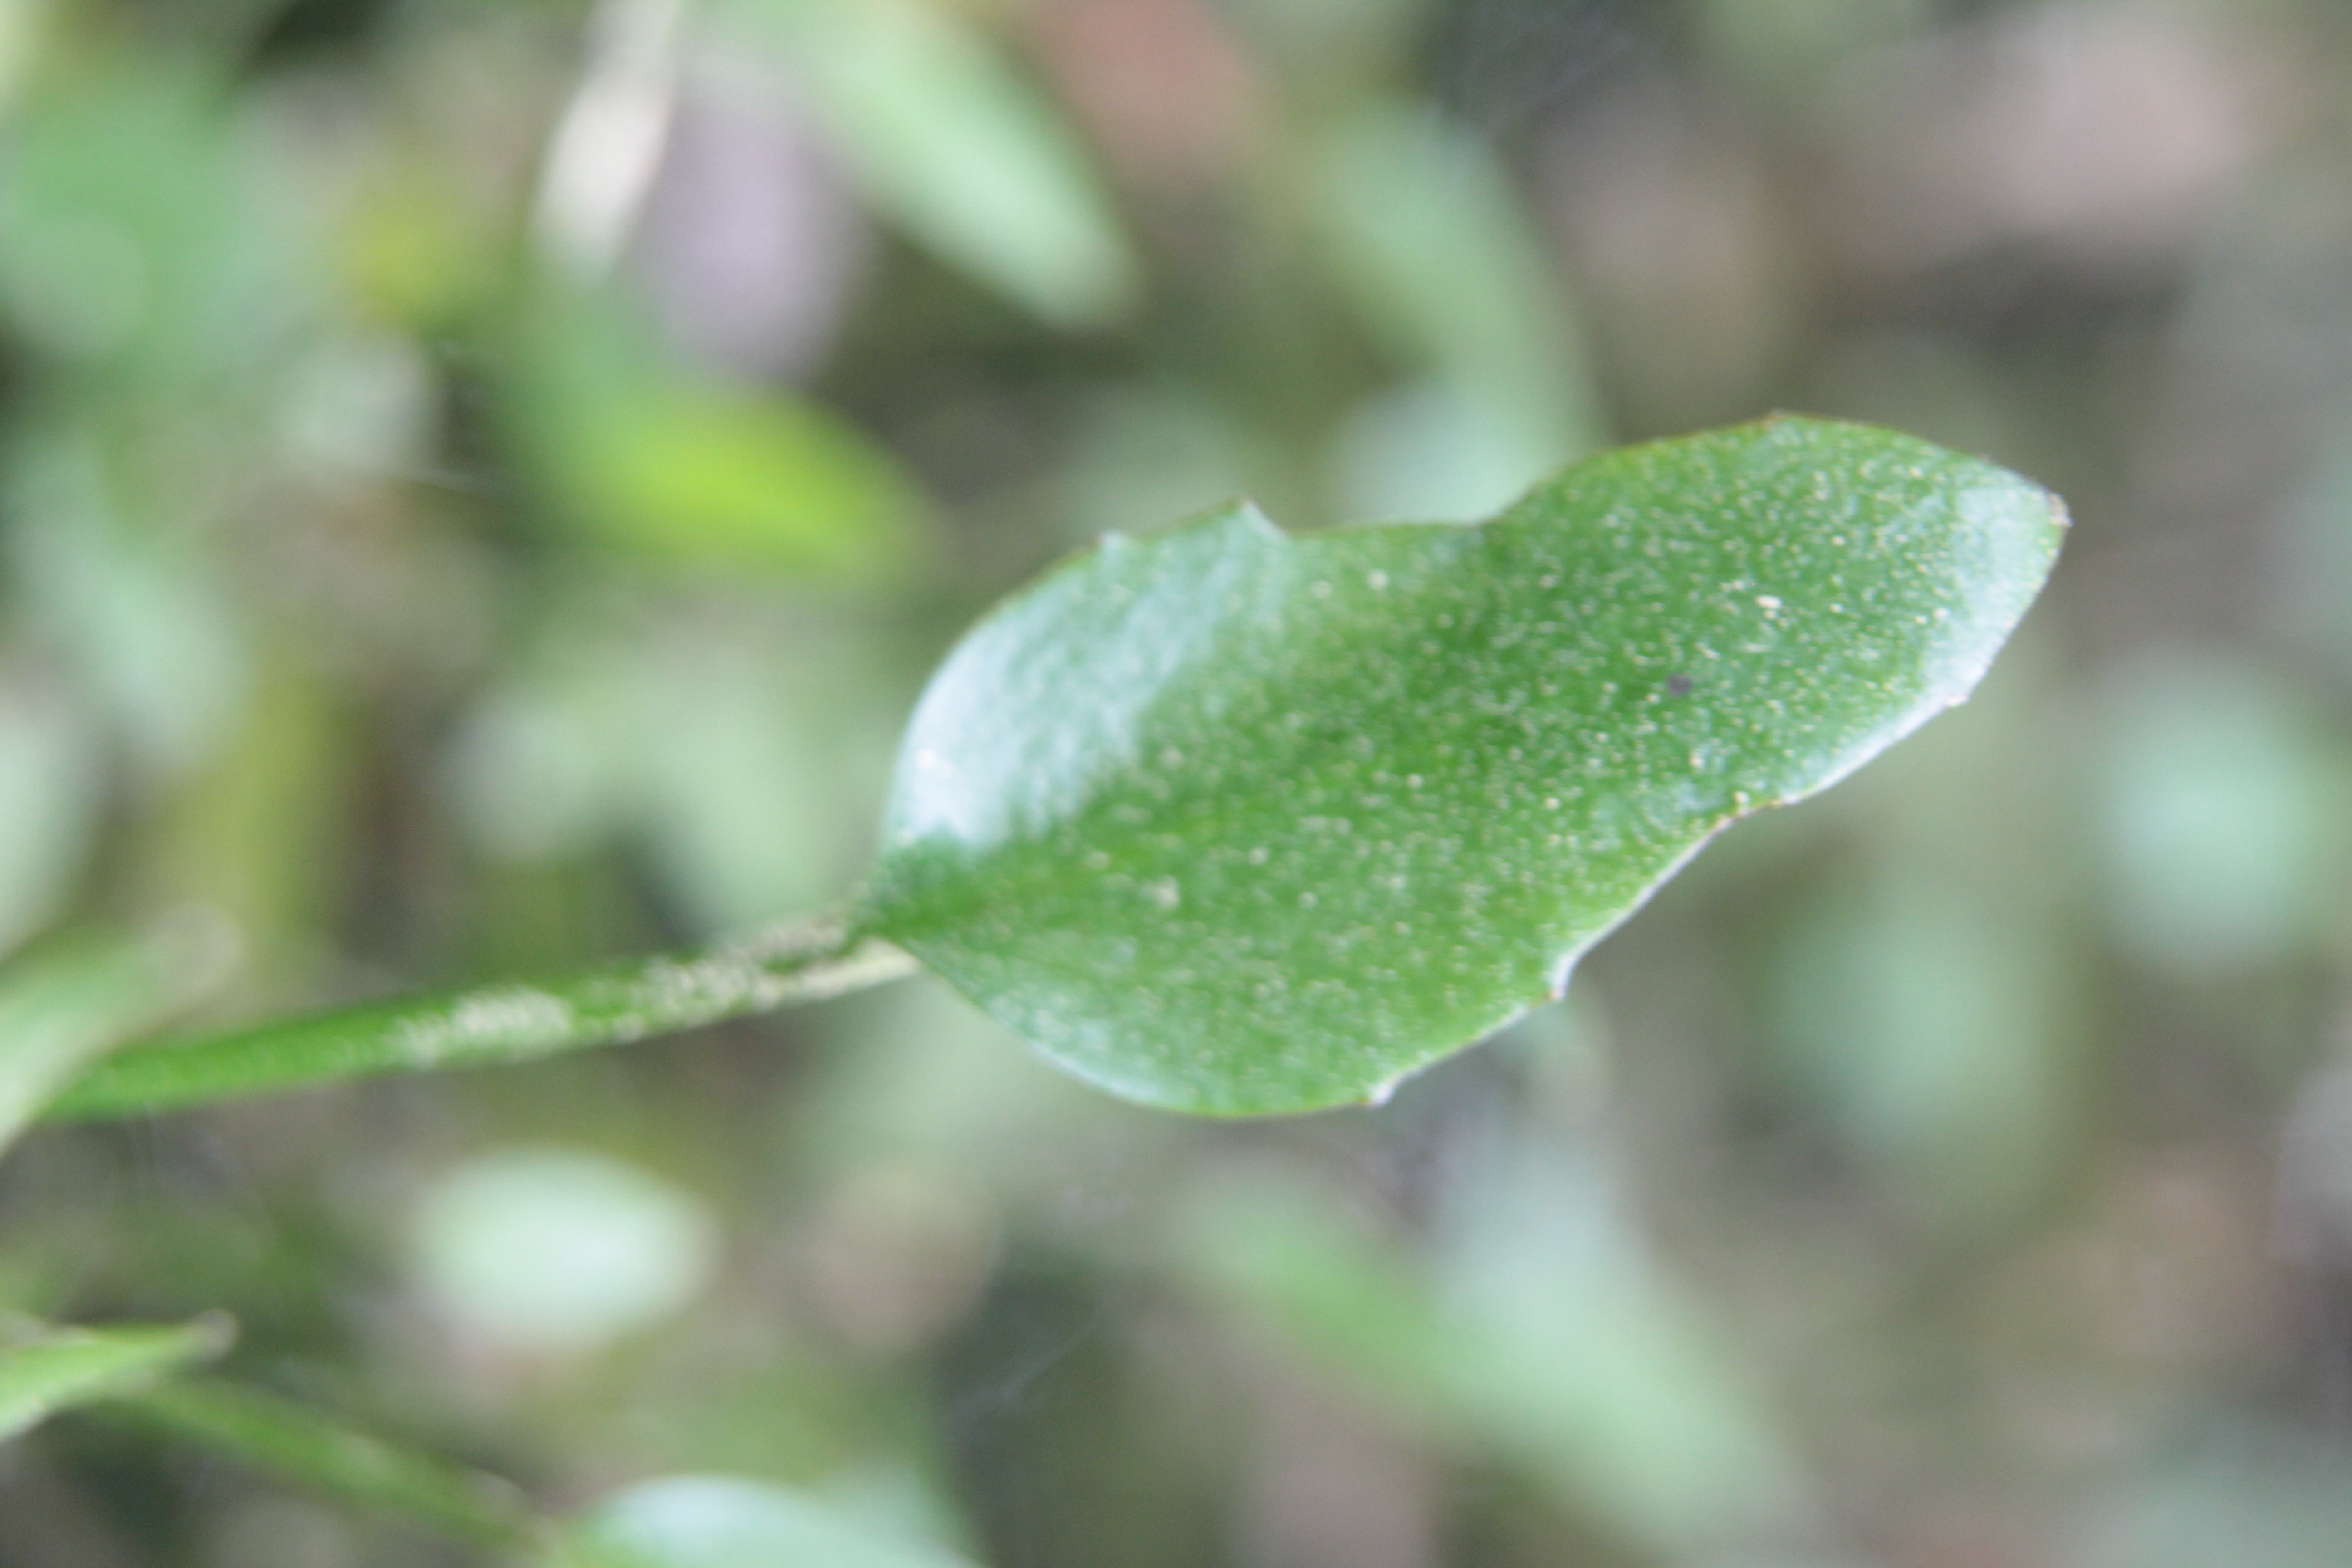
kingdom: Plantae
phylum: Tracheophyta
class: Magnoliopsida
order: Ranunculales
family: Ranunculaceae
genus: Ranunculus
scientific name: Ranunculus flammula
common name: Lesser spearwort
